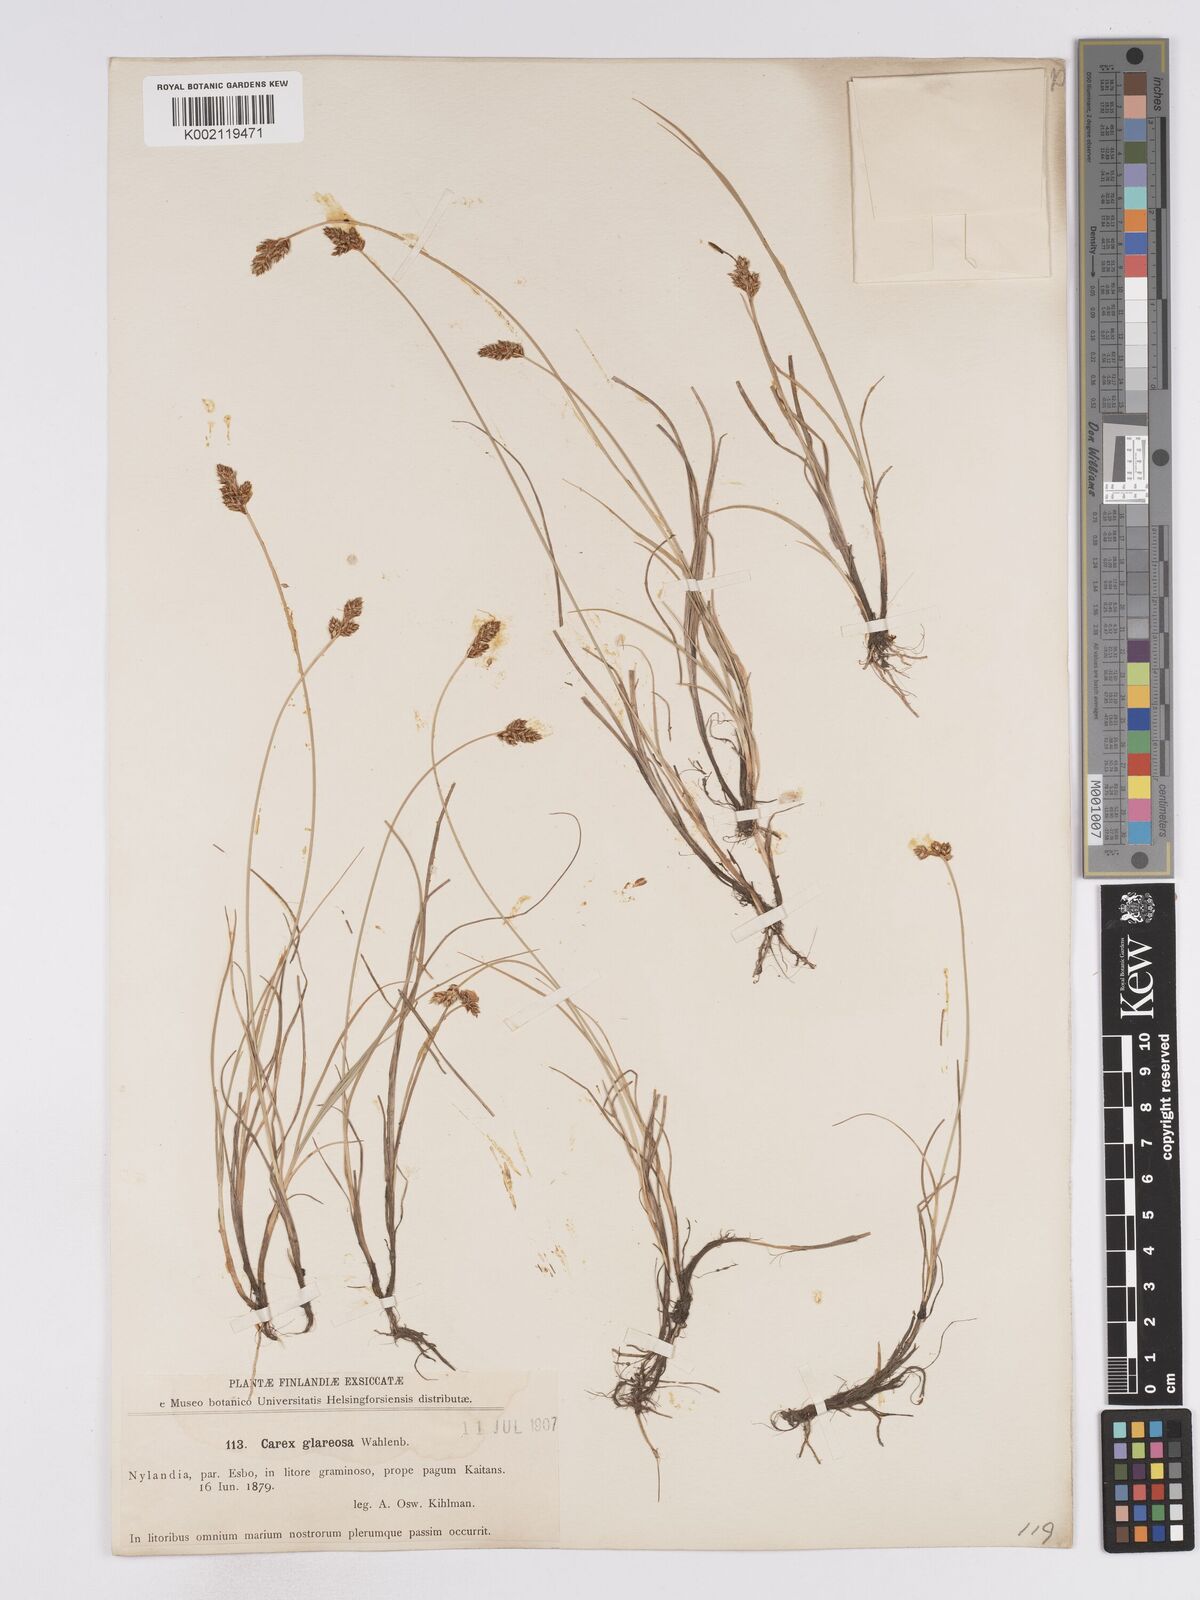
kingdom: Plantae
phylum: Tracheophyta
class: Liliopsida
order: Poales
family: Cyperaceae
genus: Carex
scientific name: Carex glareosa
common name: Clustered sedge
